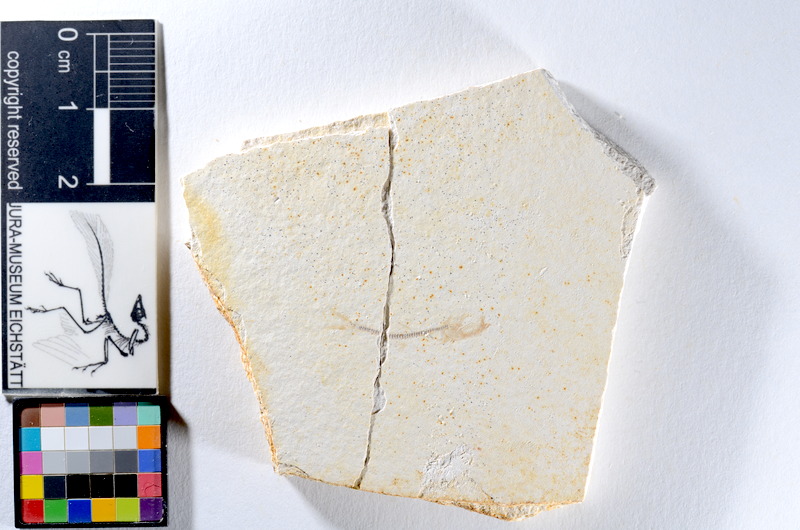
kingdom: Animalia
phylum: Chordata
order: Salmoniformes
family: Orthogonikleithridae
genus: Orthogonikleithrus
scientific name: Orthogonikleithrus hoelli
